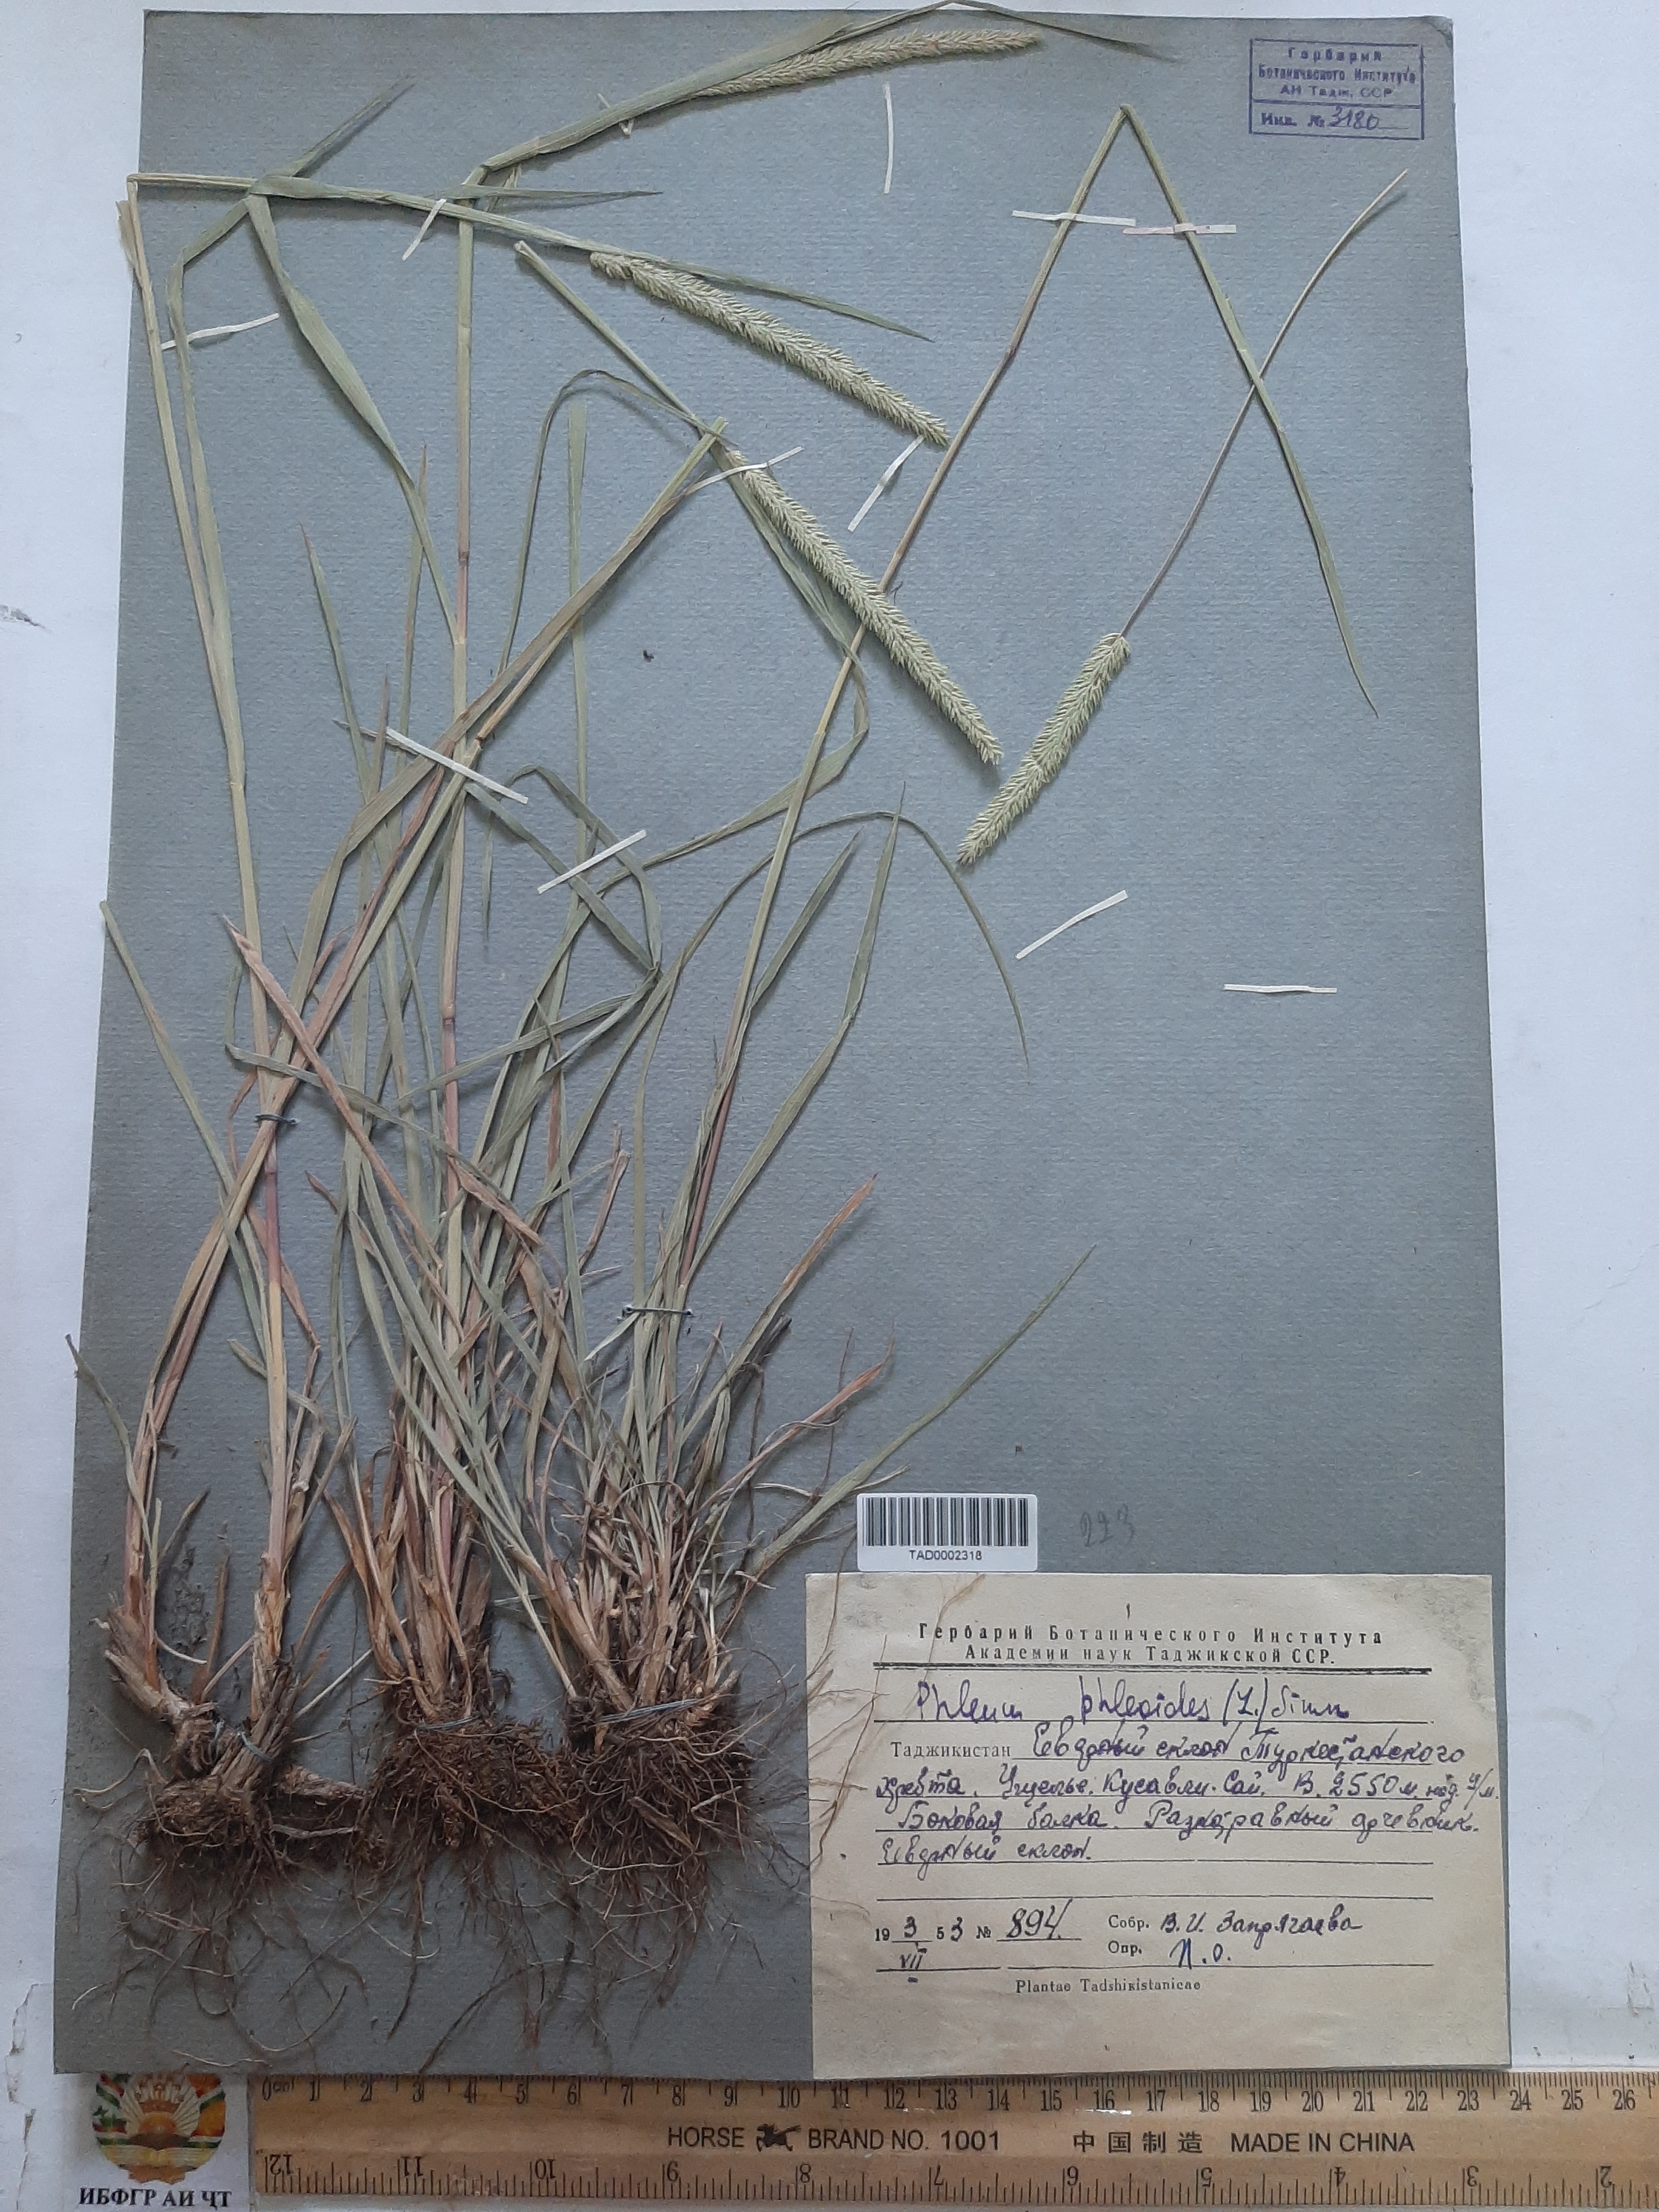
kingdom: Plantae
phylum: Tracheophyta
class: Liliopsida
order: Poales
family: Poaceae
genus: Phleum
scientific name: Phleum phleoides
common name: Purple-stem cat's-tail
